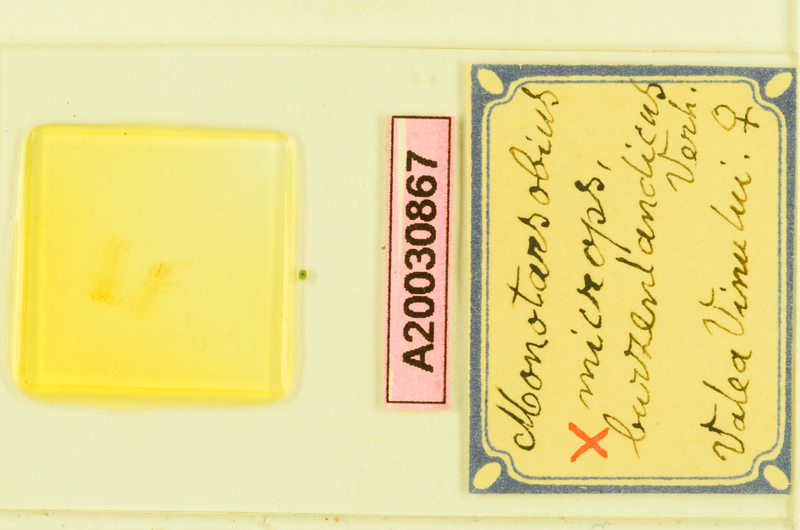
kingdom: Animalia
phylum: Arthropoda
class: Chilopoda
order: Lithobiomorpha
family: Lithobiidae
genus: Monotarsobius
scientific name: Monotarsobius microps
